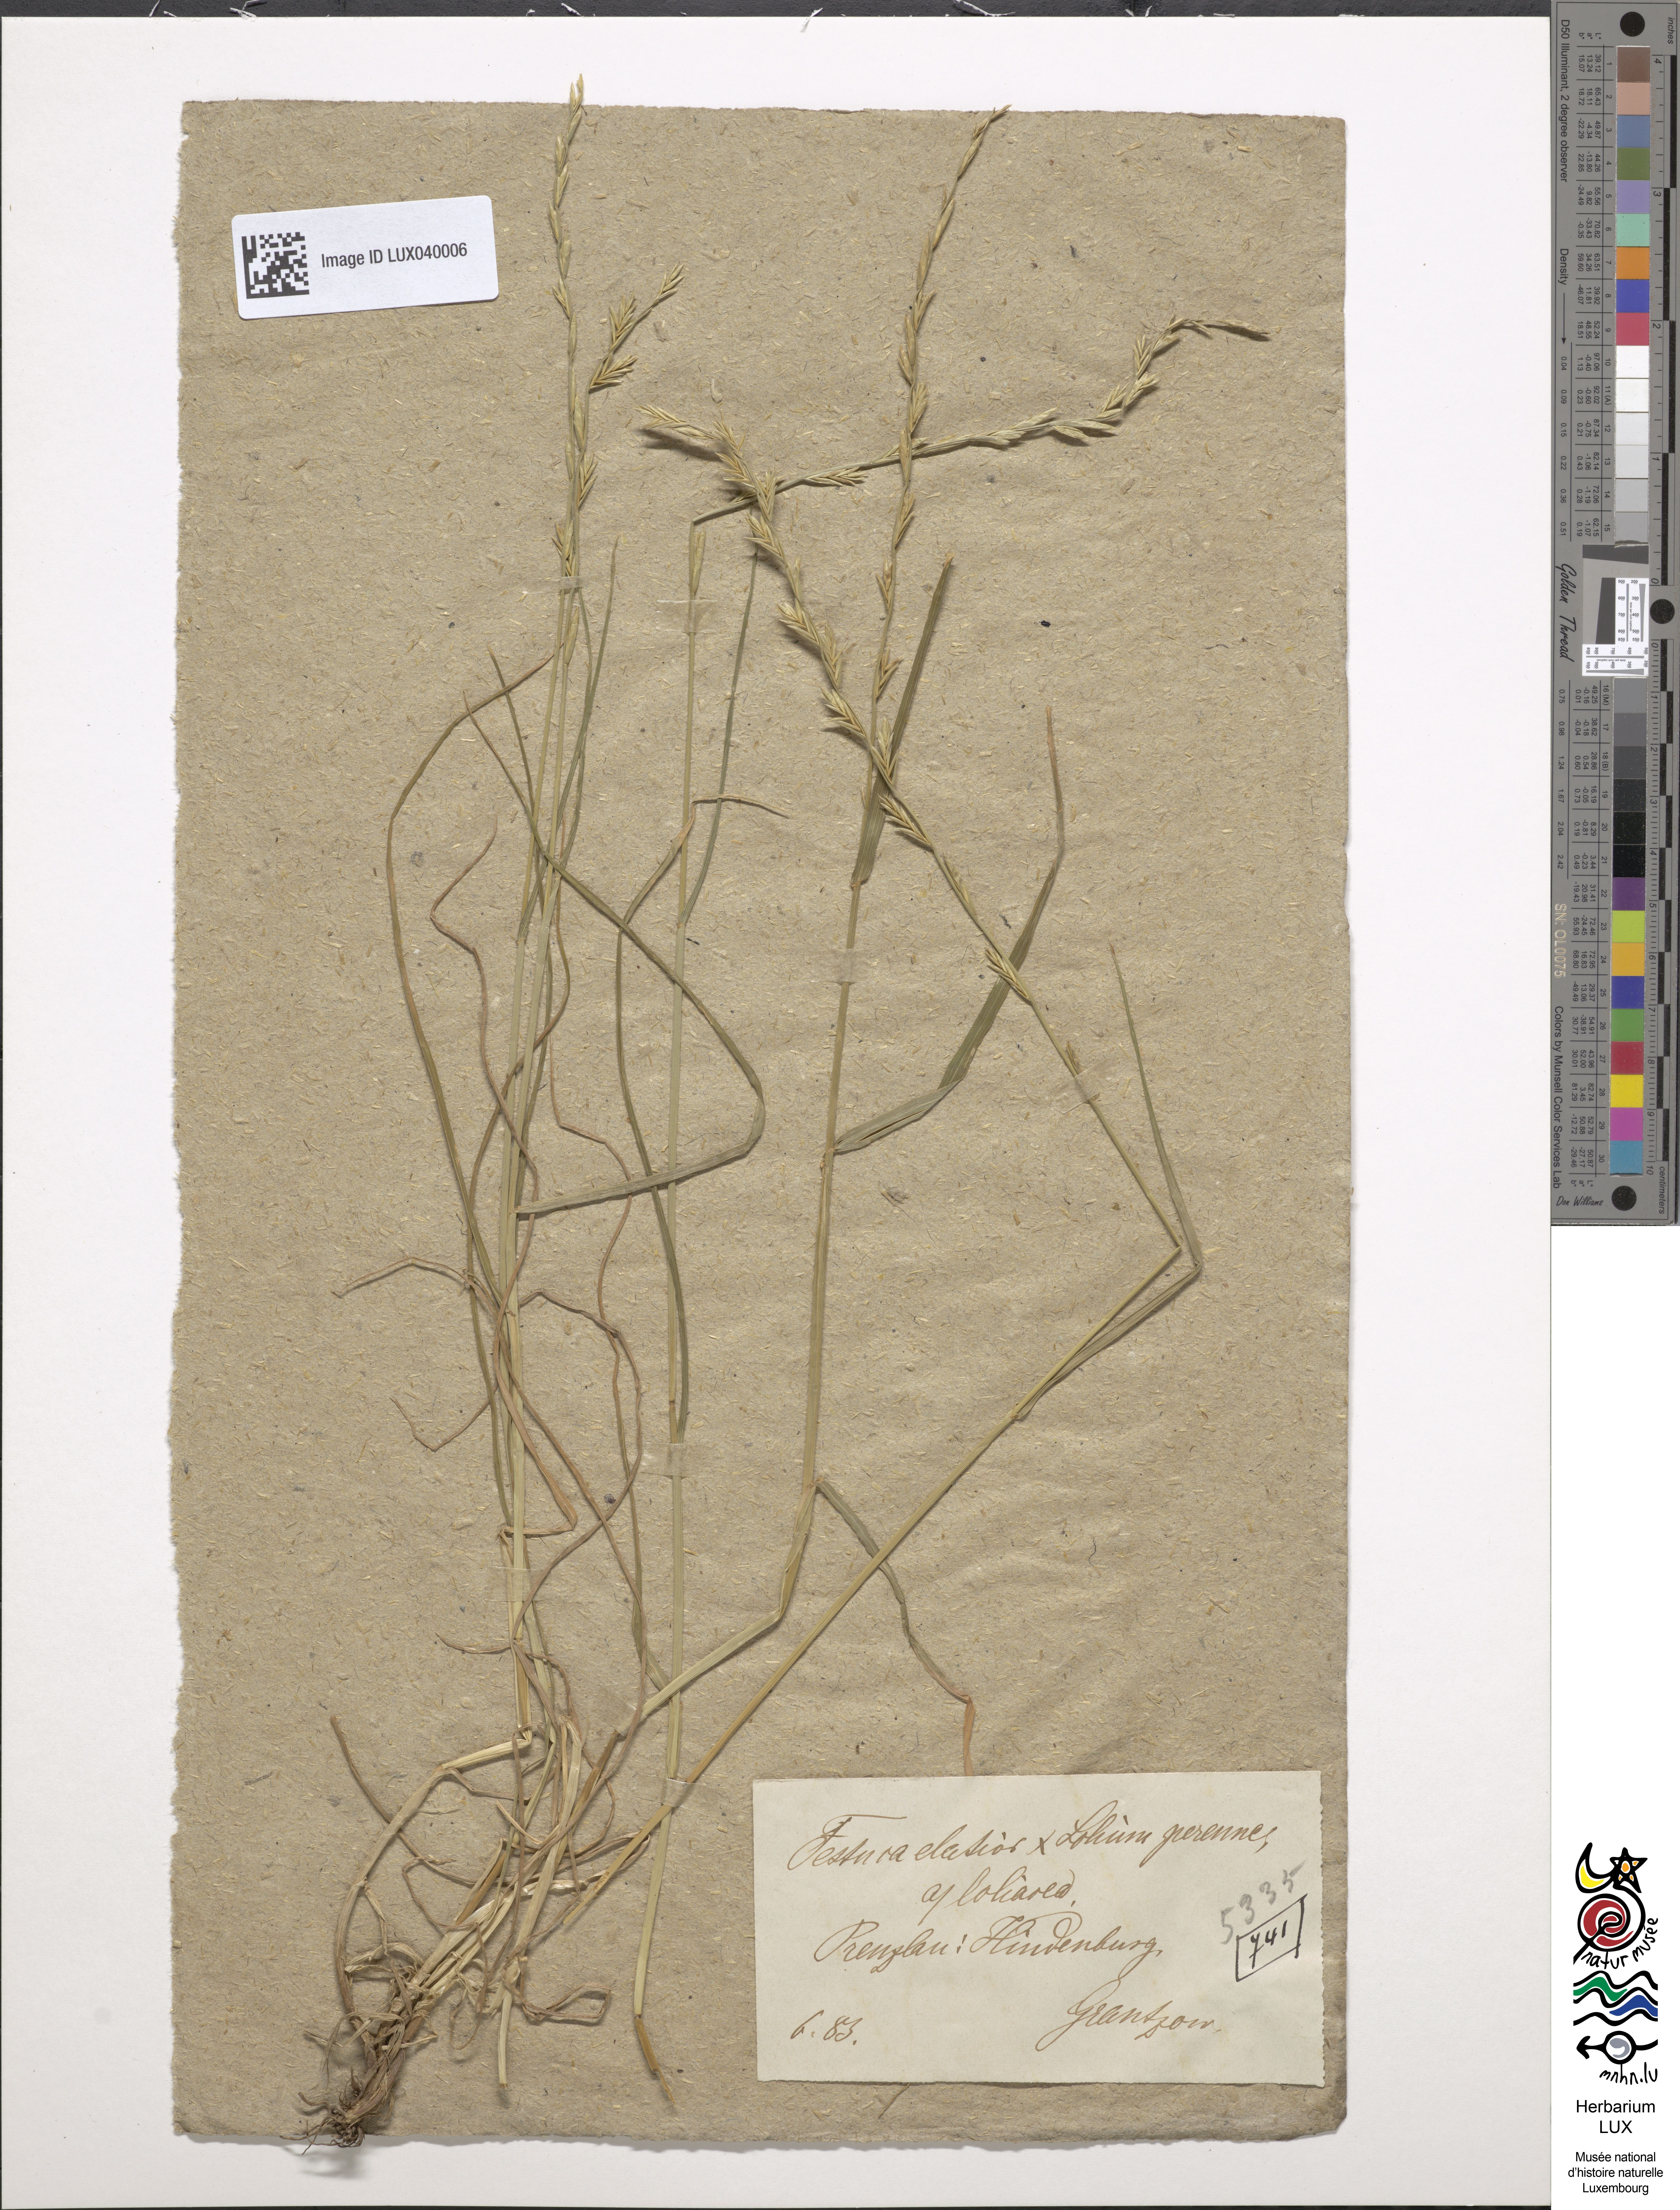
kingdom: Plantae
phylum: Tracheophyta
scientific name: Tracheophyta
